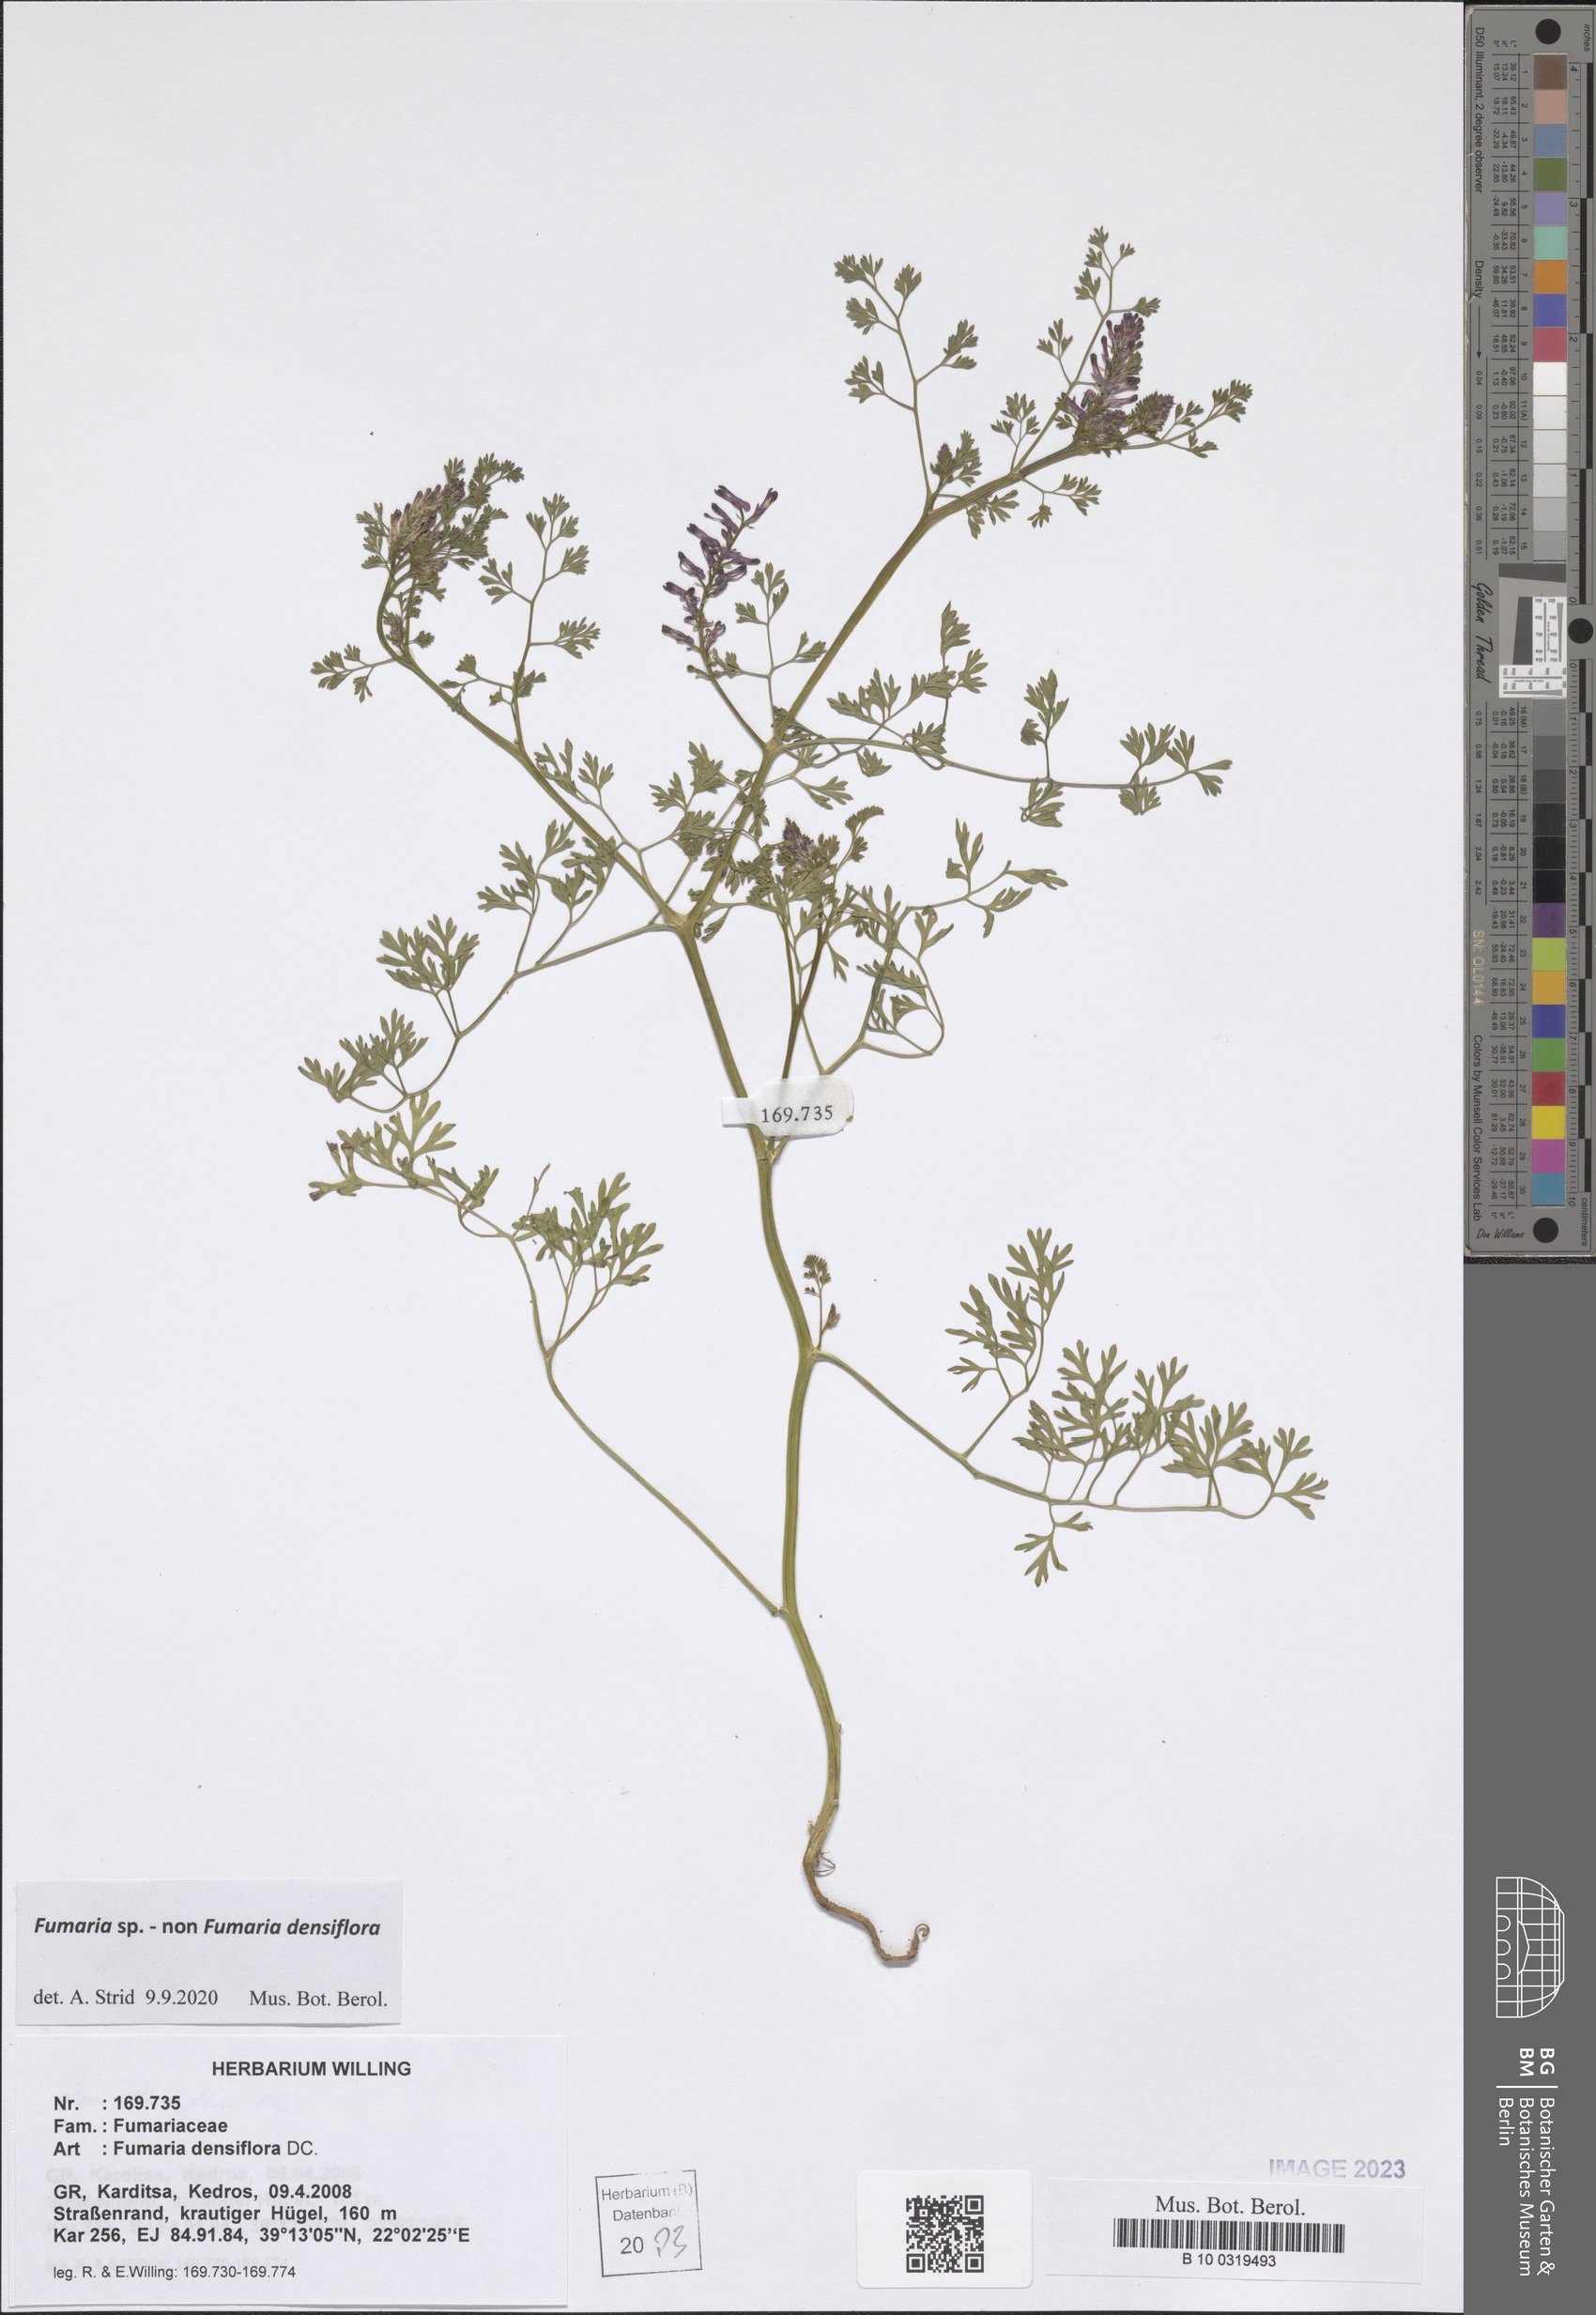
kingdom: Plantae
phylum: Tracheophyta
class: Magnoliopsida
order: Ranunculales
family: Papaveraceae
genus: Fumaria
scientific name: Fumaria
